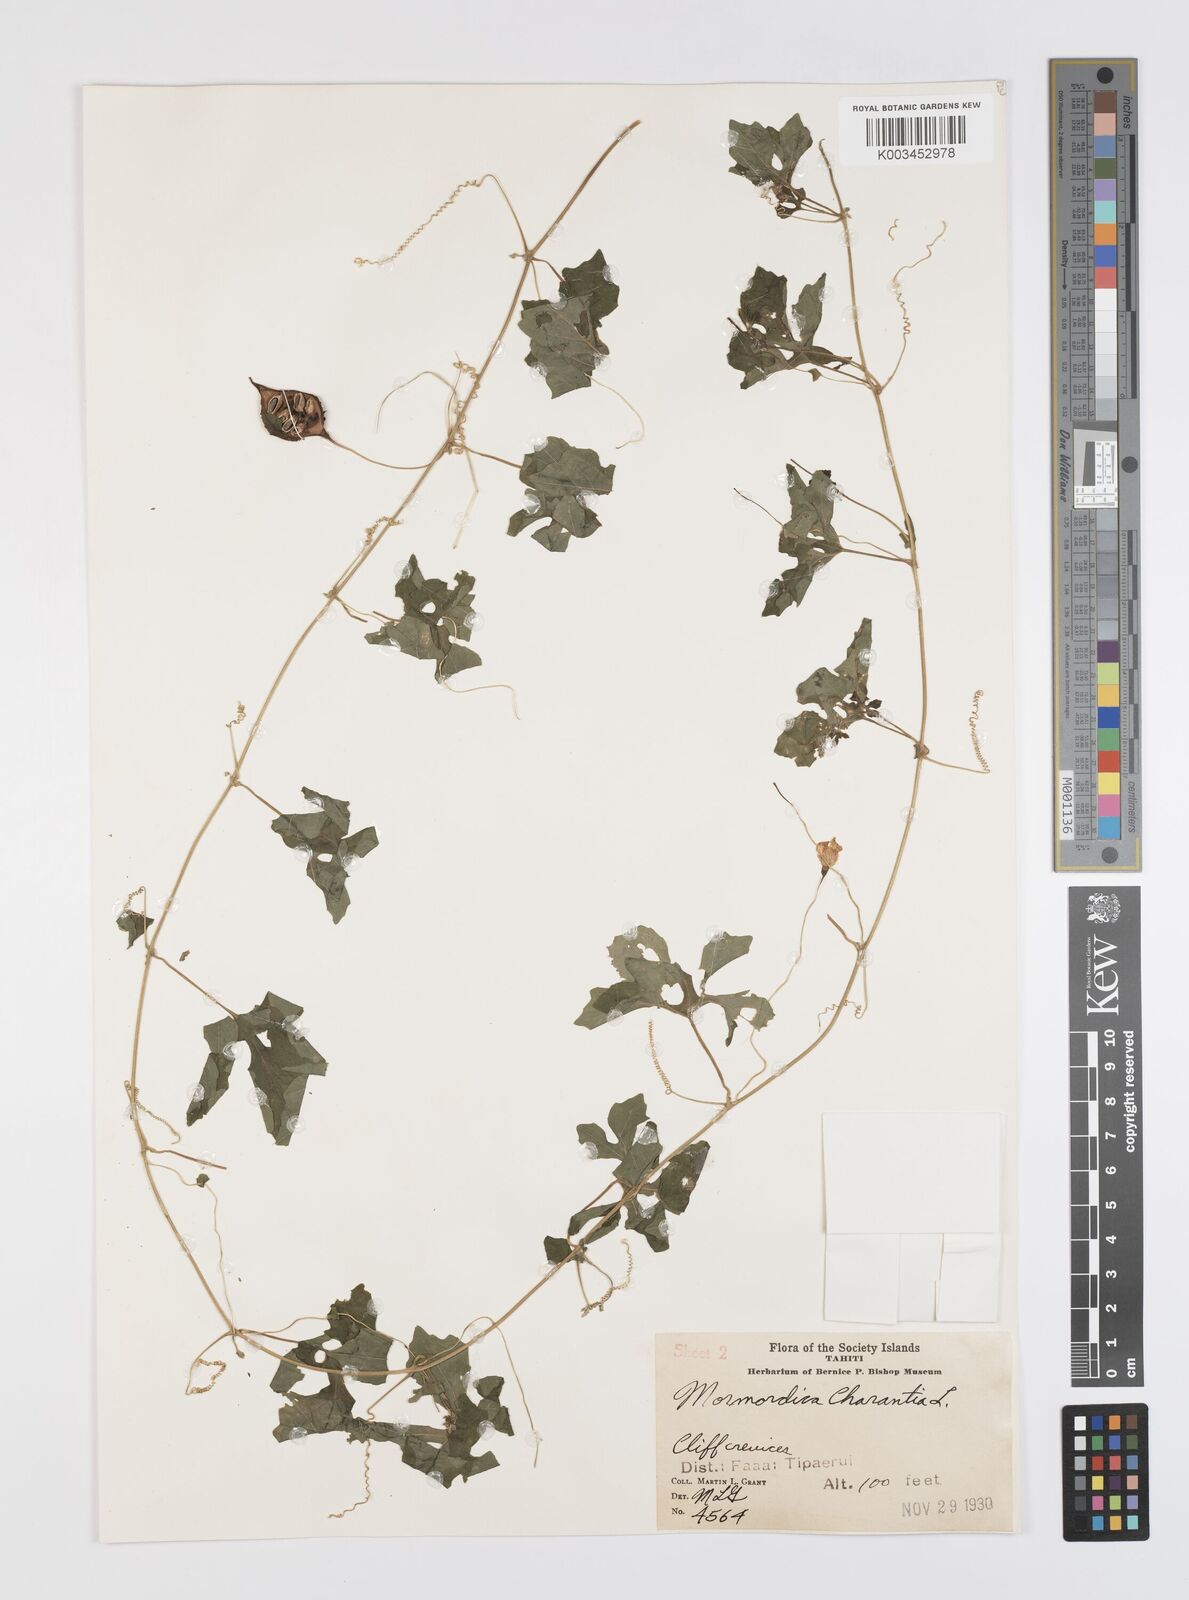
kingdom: Plantae
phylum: Tracheophyta
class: Magnoliopsida
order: Cucurbitales
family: Cucurbitaceae
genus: Momordica
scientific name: Momordica charantia
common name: Balsampear
